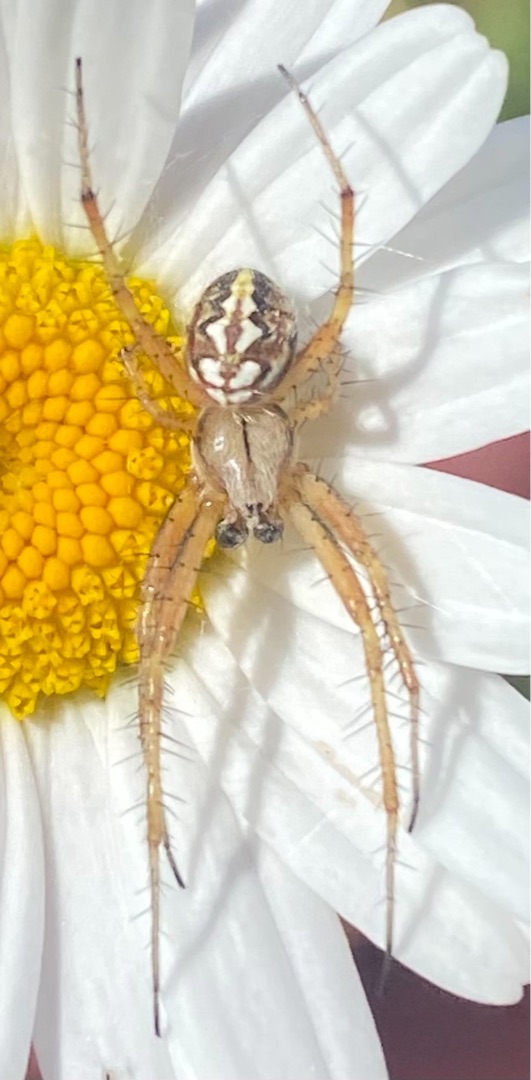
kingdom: Animalia
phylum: Arthropoda
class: Arachnida
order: Araneae
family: Araneidae
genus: Neoscona
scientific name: Neoscona adianta
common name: Klithjulspinder
